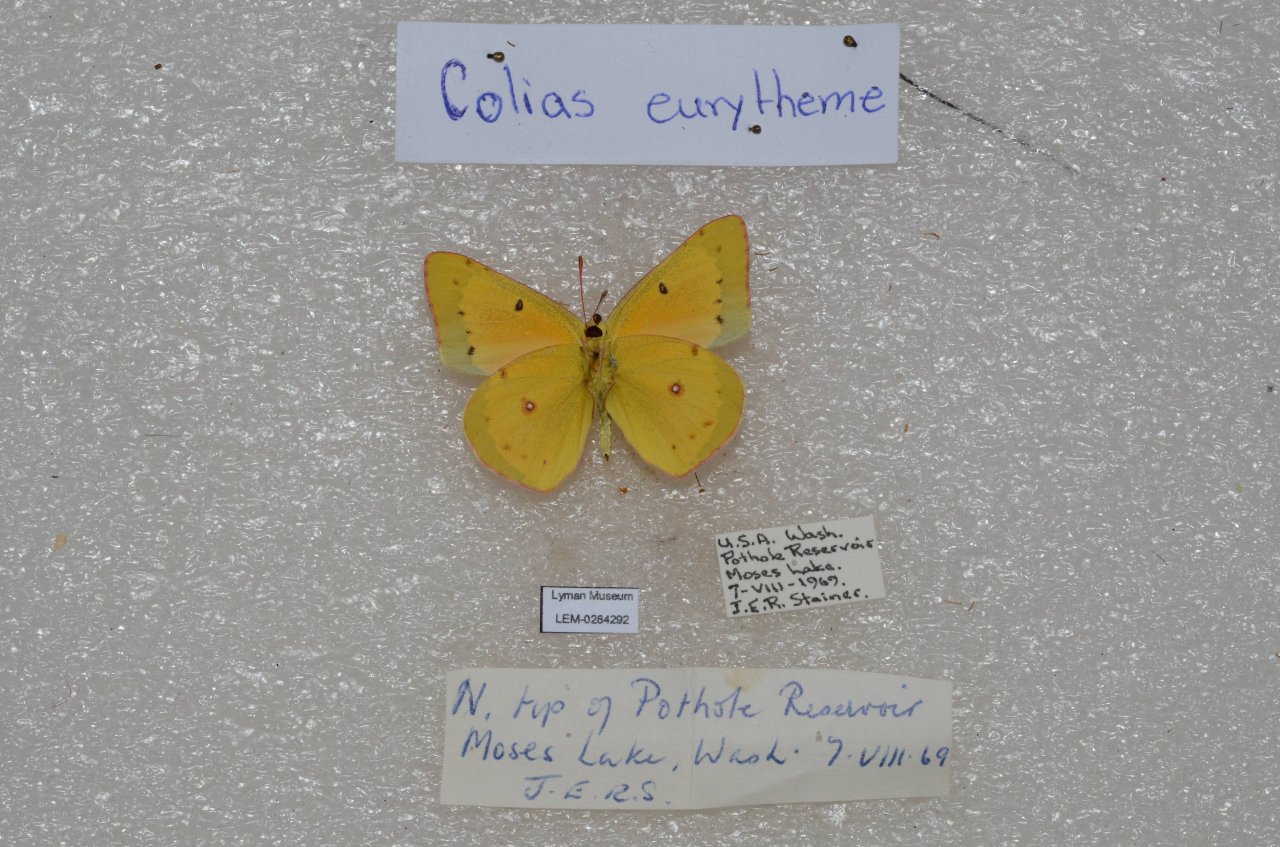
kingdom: Animalia
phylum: Arthropoda
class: Insecta
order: Lepidoptera
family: Pieridae
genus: Colias
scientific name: Colias eurytheme
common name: Orange Sulphur
